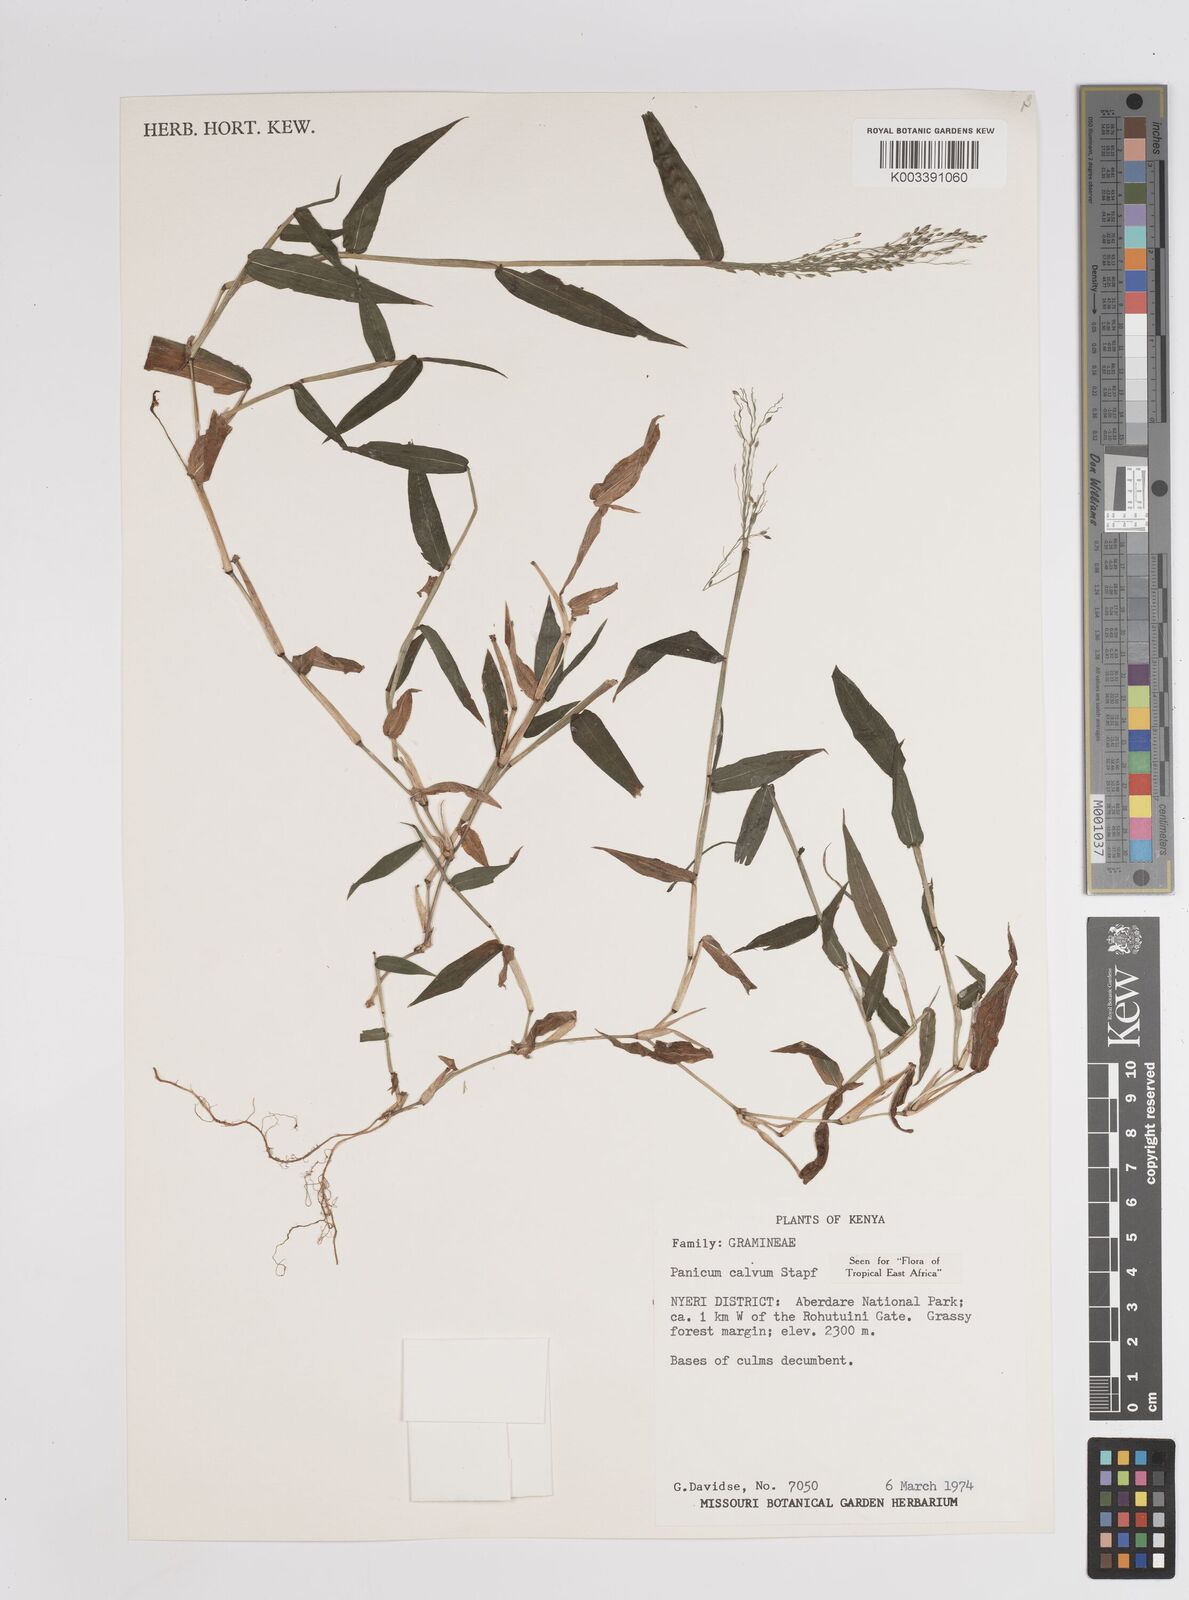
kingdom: Plantae
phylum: Tracheophyta
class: Liliopsida
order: Poales
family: Poaceae
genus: Panicum
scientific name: Panicum calvum
